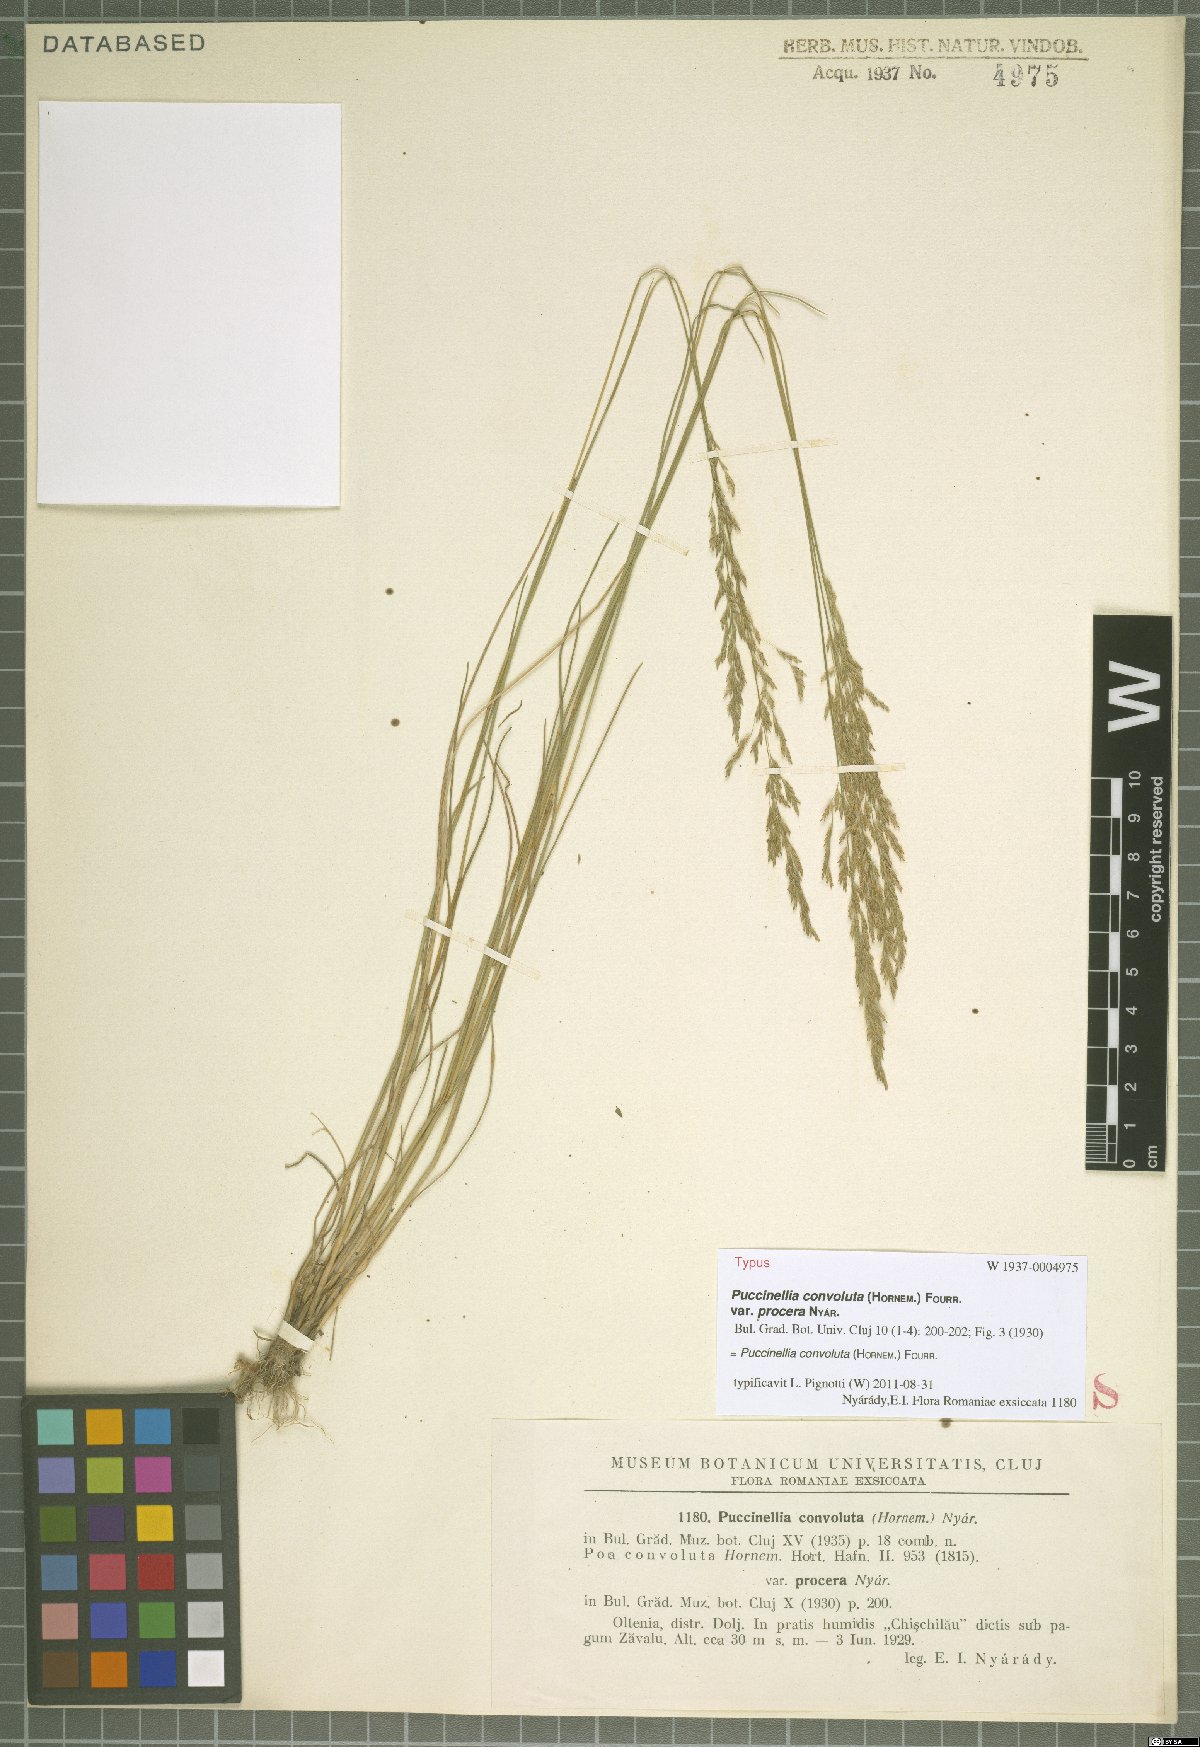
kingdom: Plantae
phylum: Tracheophyta
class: Liliopsida
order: Poales
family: Poaceae
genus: Puccinellia
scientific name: Puccinellia convoluta
